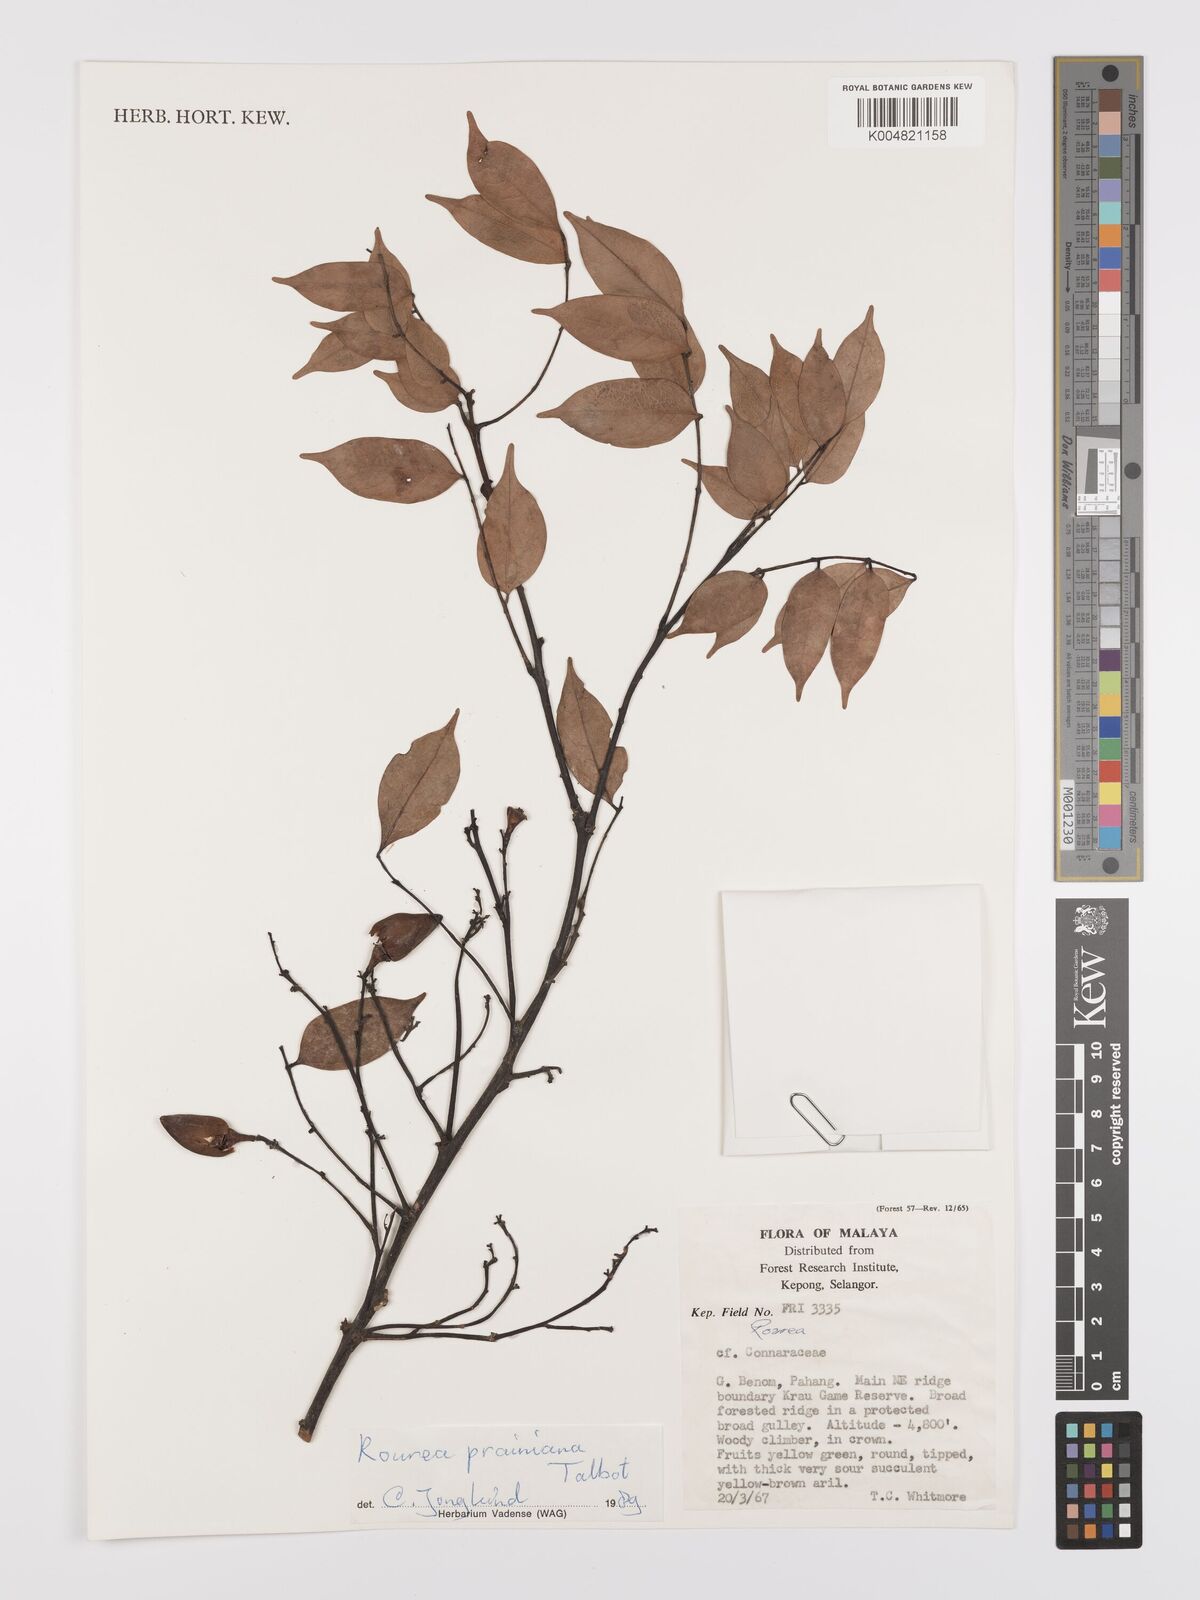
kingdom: Plantae
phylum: Tracheophyta
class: Magnoliopsida
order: Oxalidales
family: Connaraceae
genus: Rourea
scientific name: Rourea prainiana
